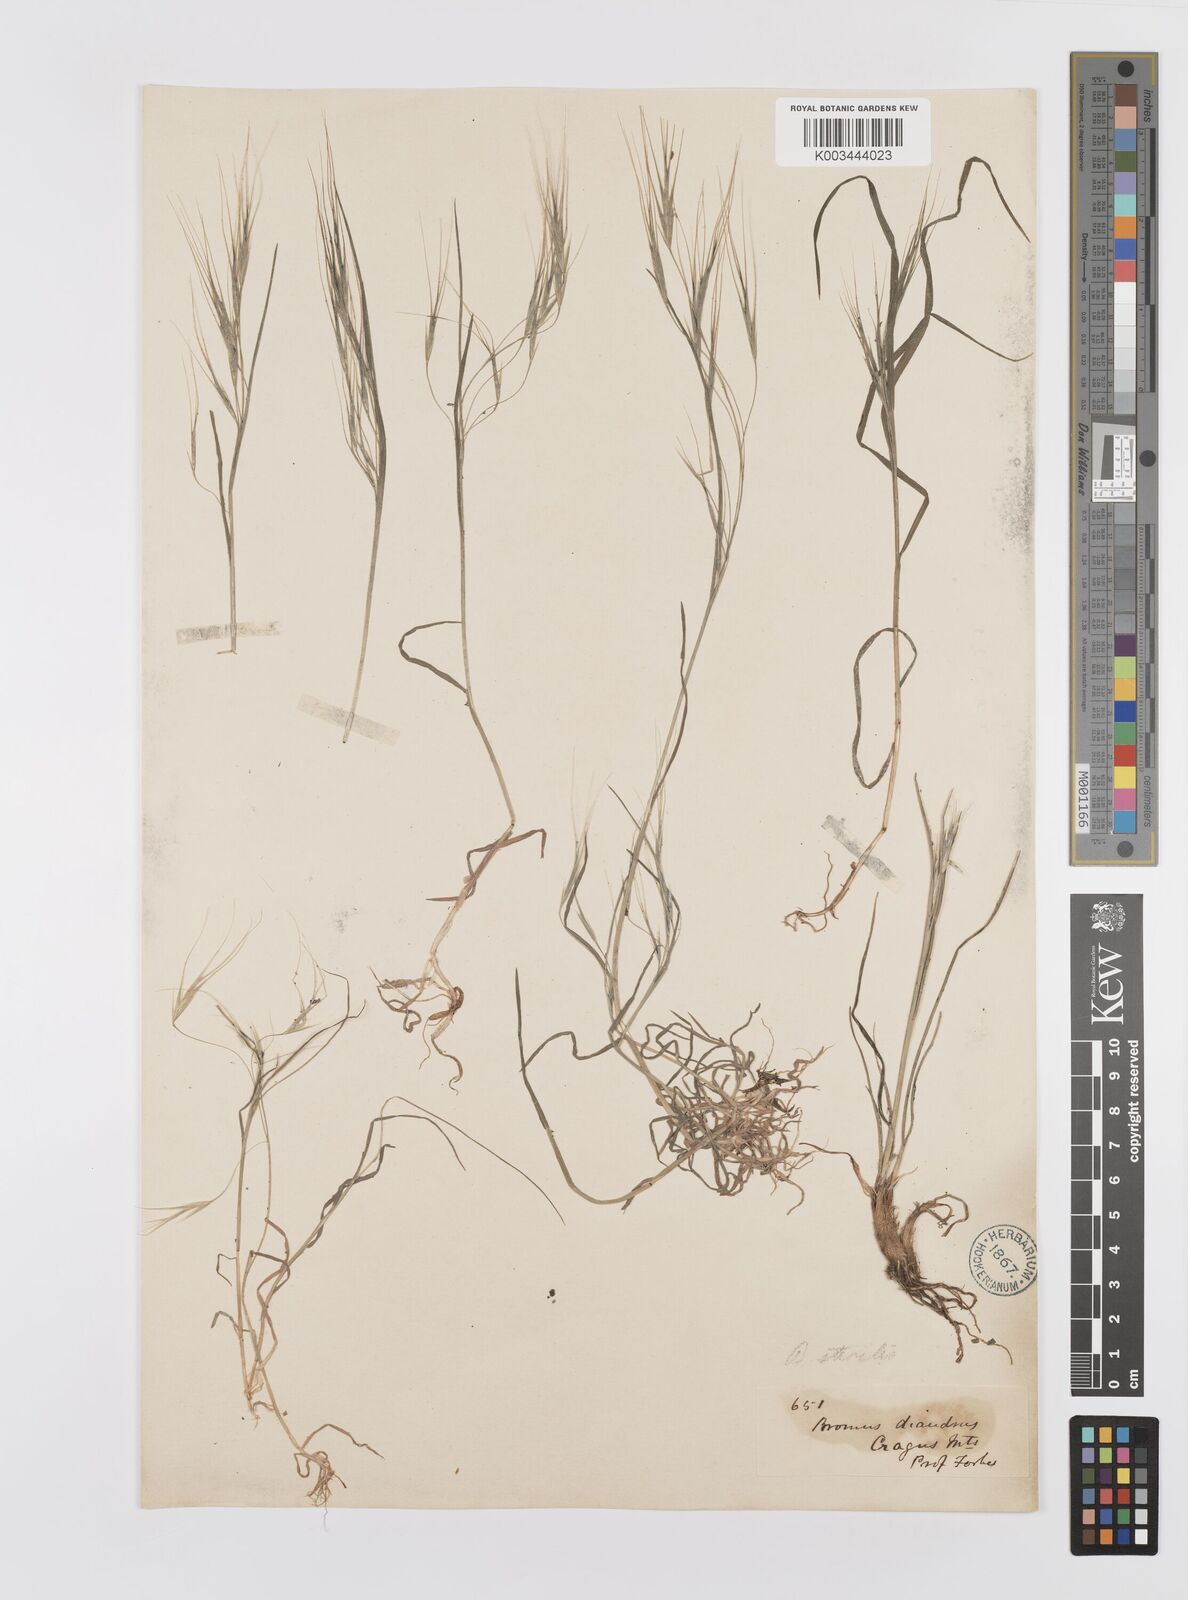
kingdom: Plantae
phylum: Tracheophyta
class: Liliopsida
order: Poales
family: Poaceae
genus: Bromus
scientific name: Bromus sterilis
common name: Poverty brome
